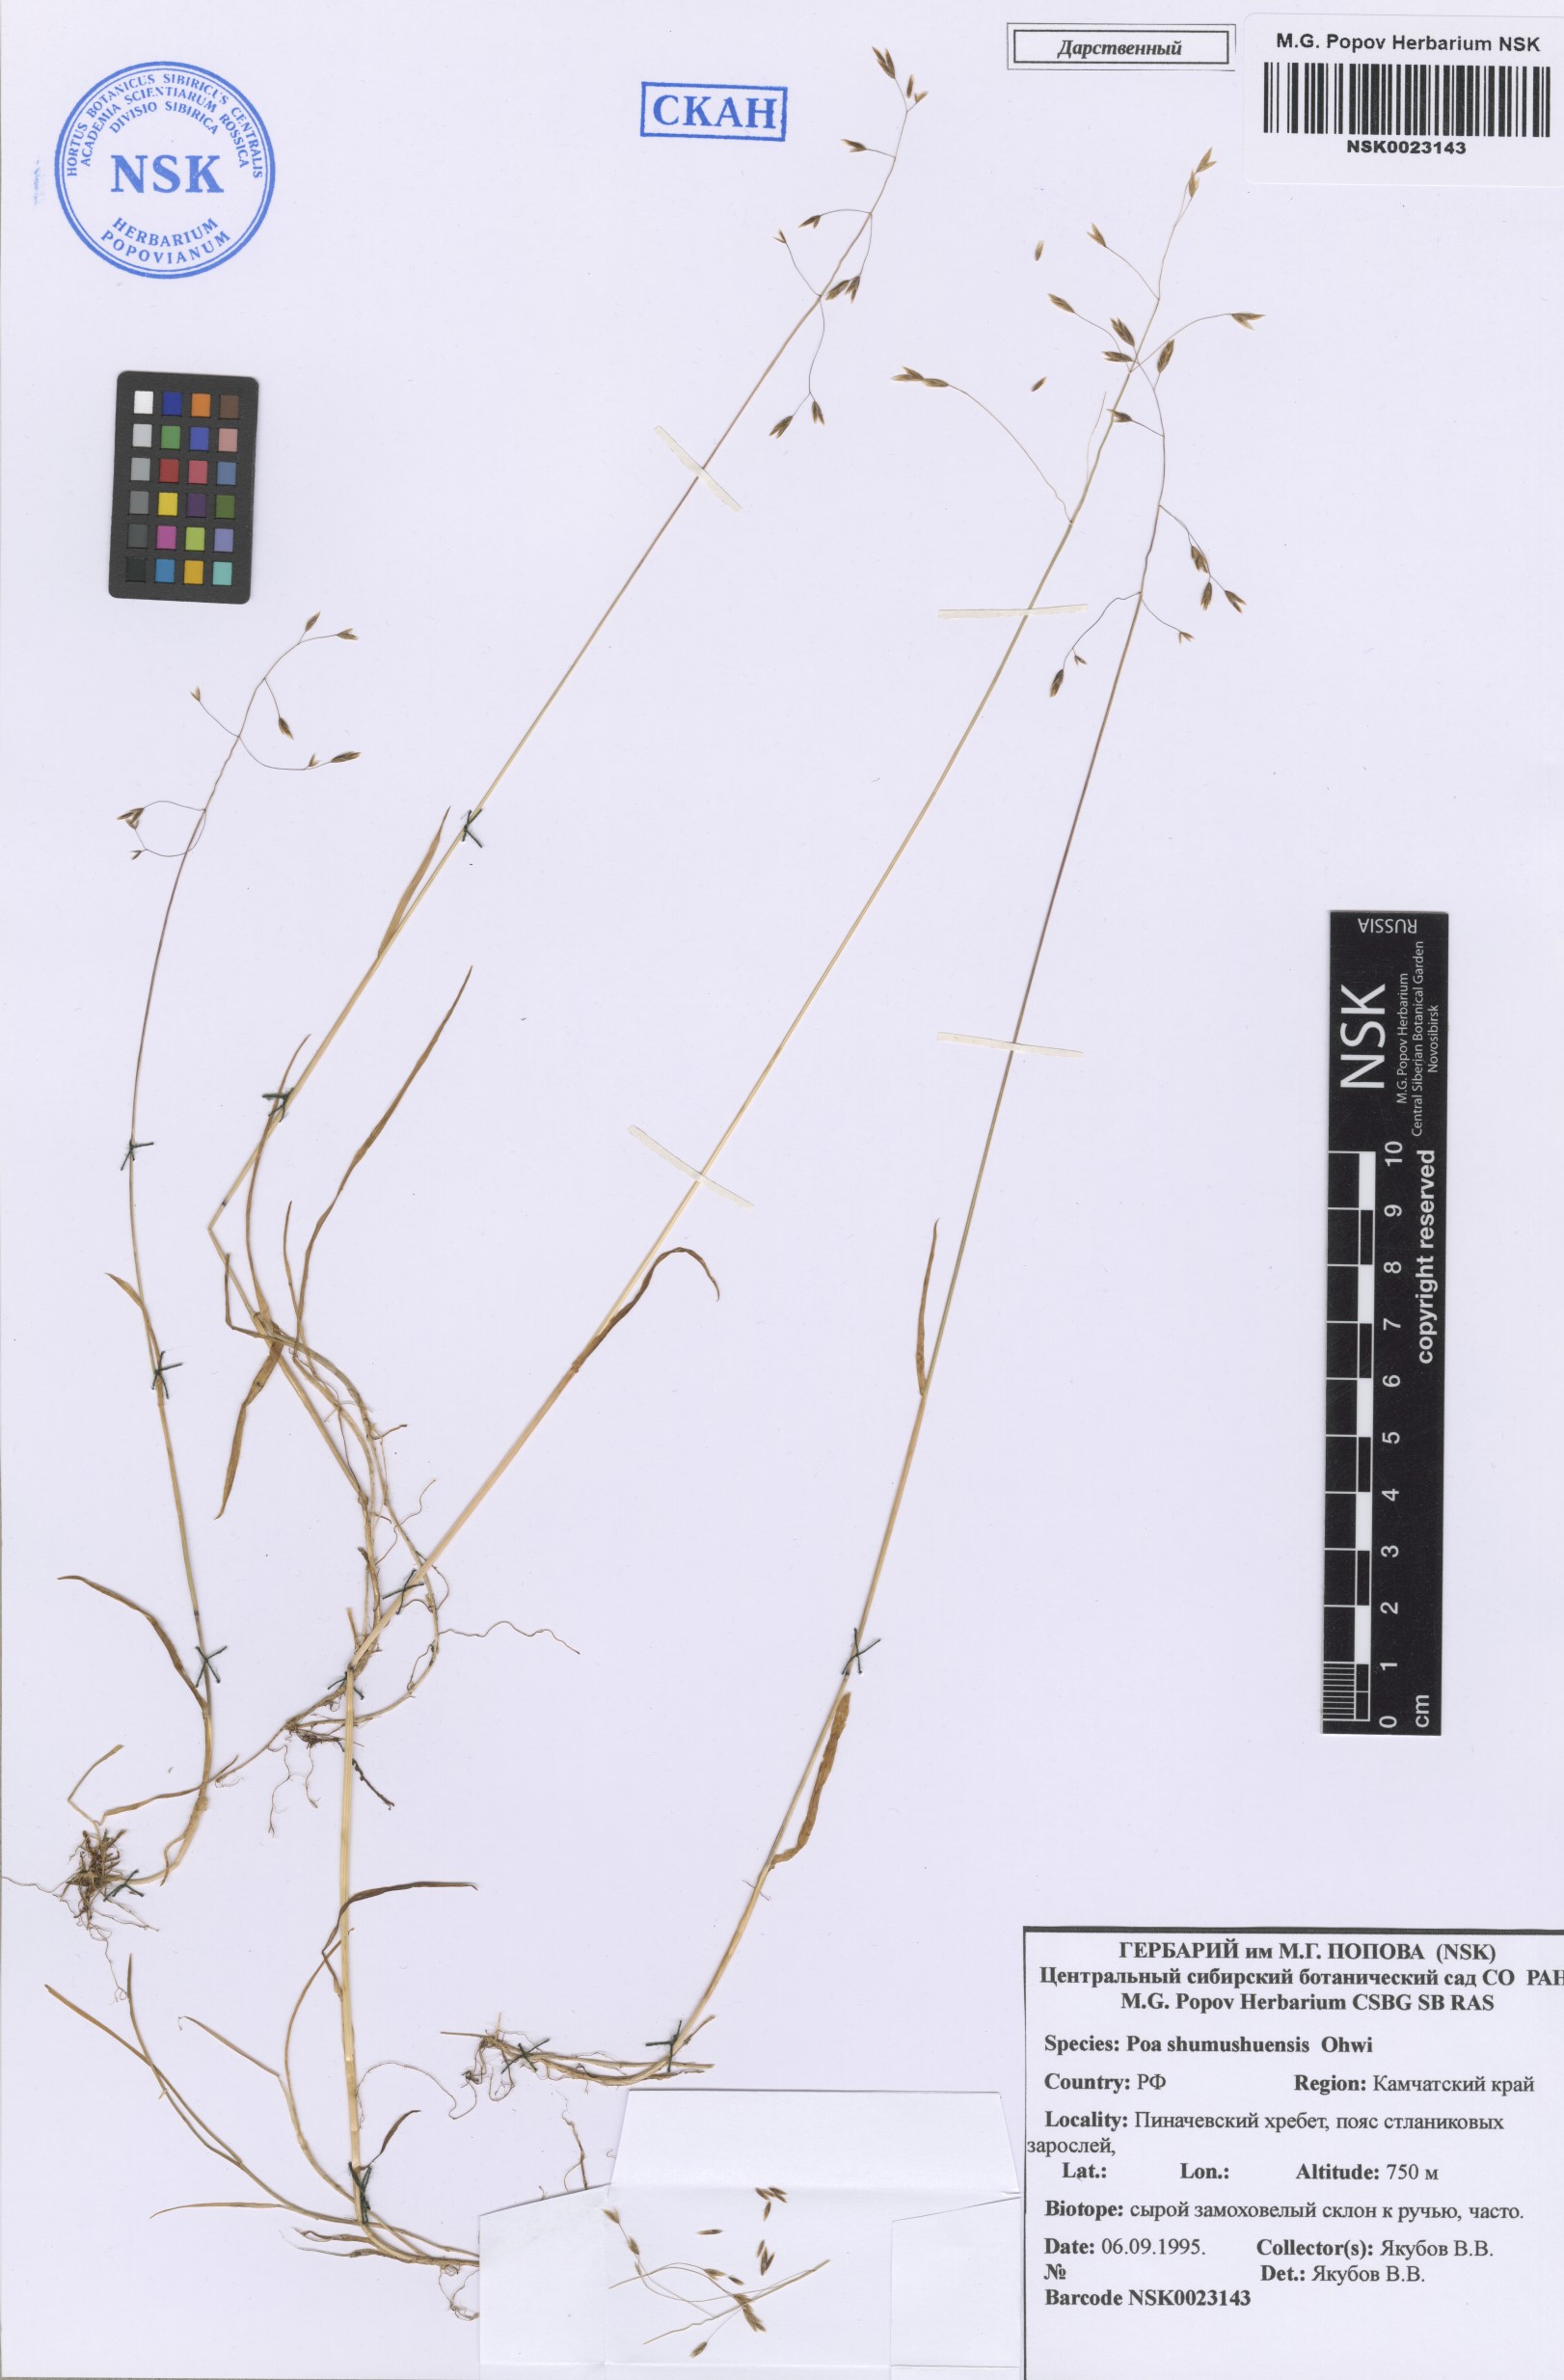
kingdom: Plantae
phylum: Tracheophyta
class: Liliopsida
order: Poales
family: Poaceae
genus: Poa
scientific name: Poa shumushuensis
